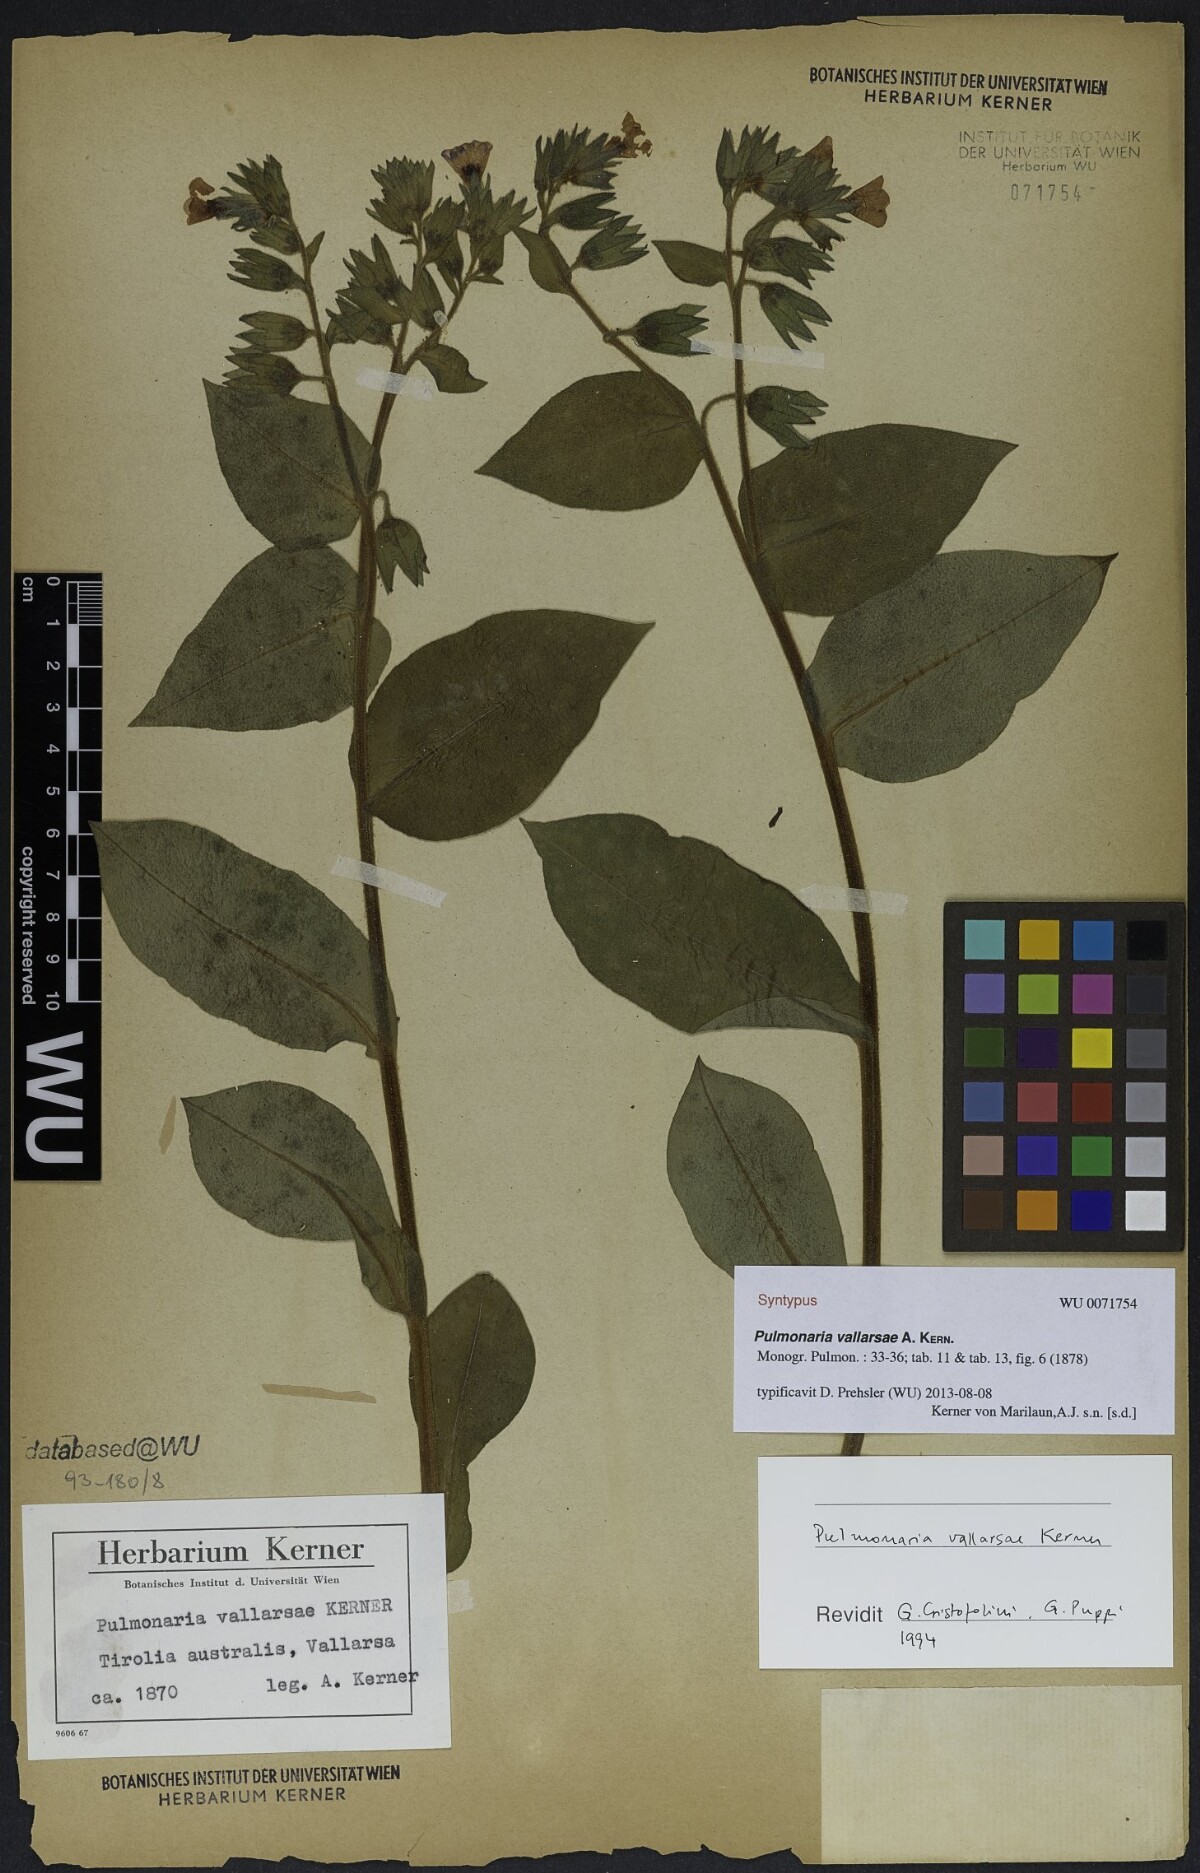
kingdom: Plantae
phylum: Tracheophyta
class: Magnoliopsida
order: Boraginales
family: Boraginaceae
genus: Pulmonaria
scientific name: Pulmonaria hirta
